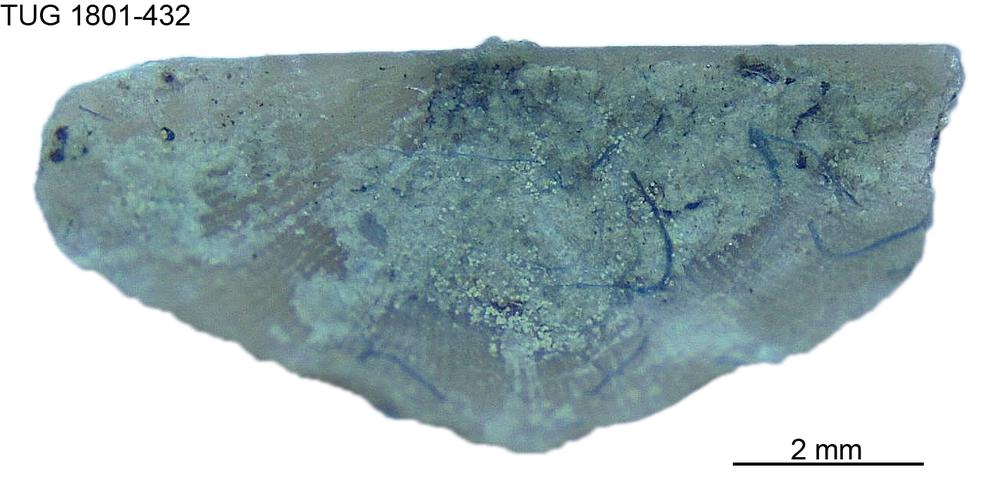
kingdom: Animalia
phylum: Brachiopoda
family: Oldhaminidae
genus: Eoplectodonta
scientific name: Eoplectodonta
